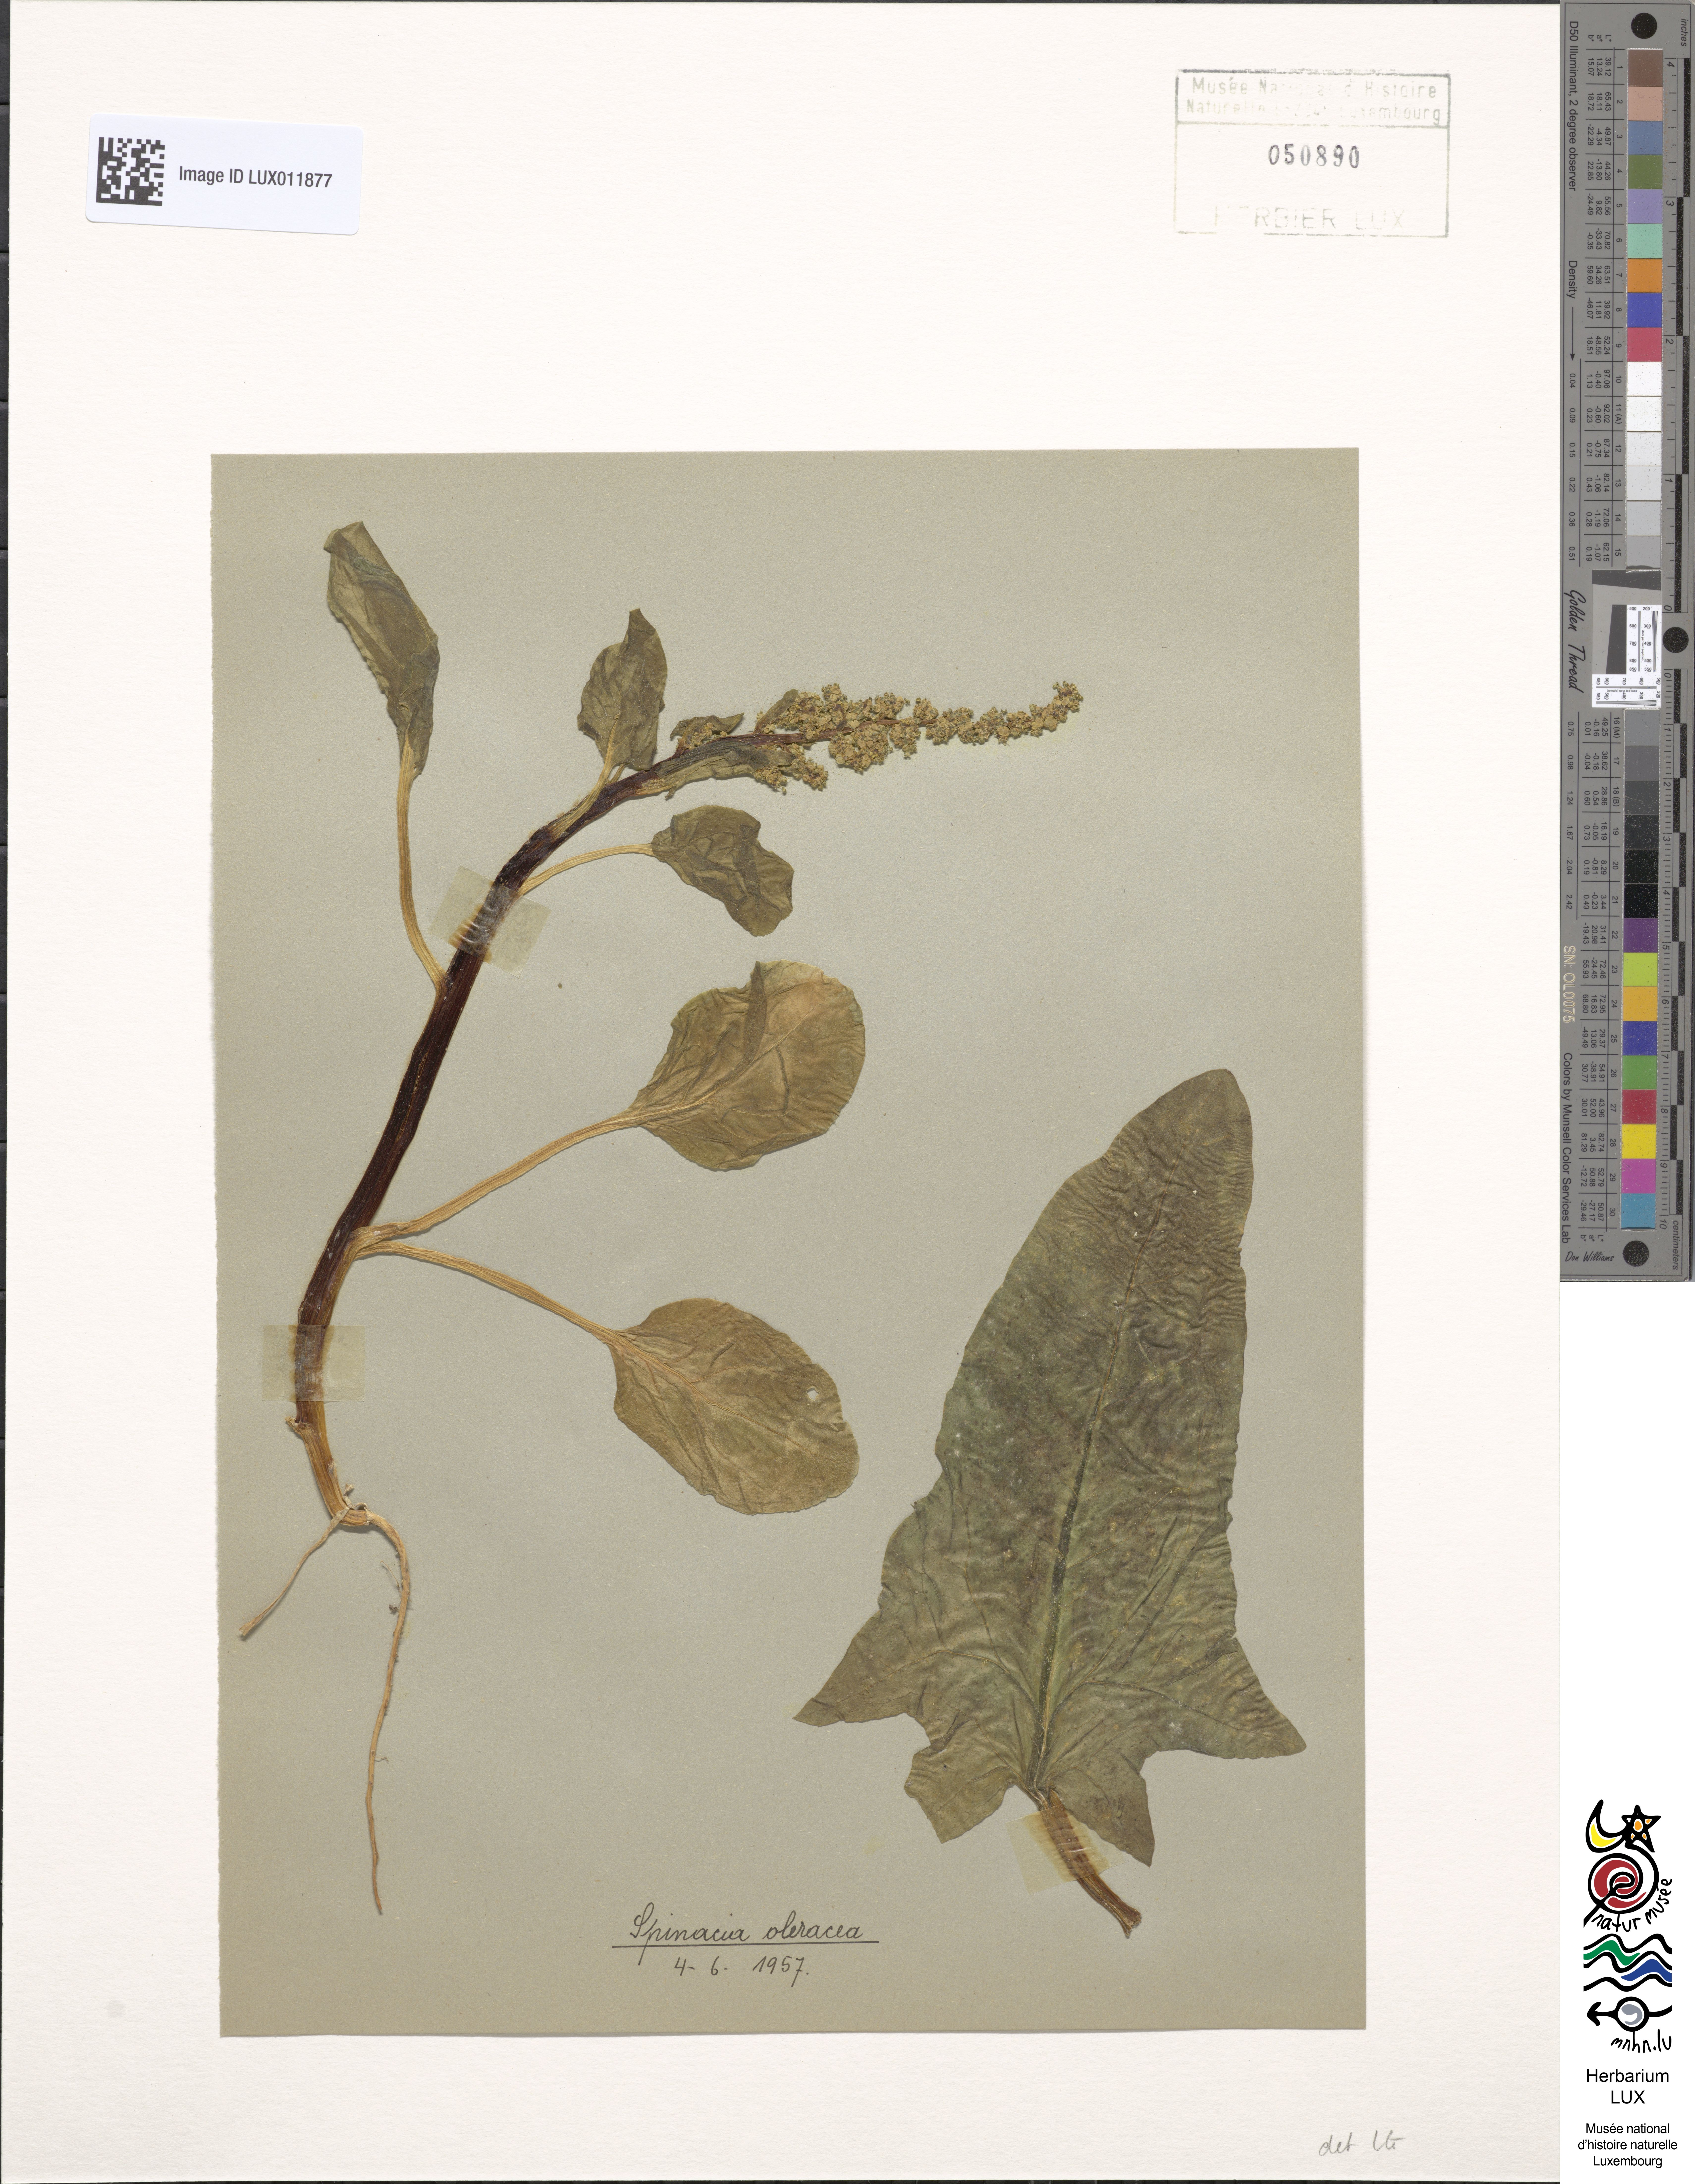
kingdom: Plantae
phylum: Tracheophyta
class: Magnoliopsida
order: Caryophyllales
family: Amaranthaceae
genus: Spinacia
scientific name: Spinacia oleracea
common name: Spinach
